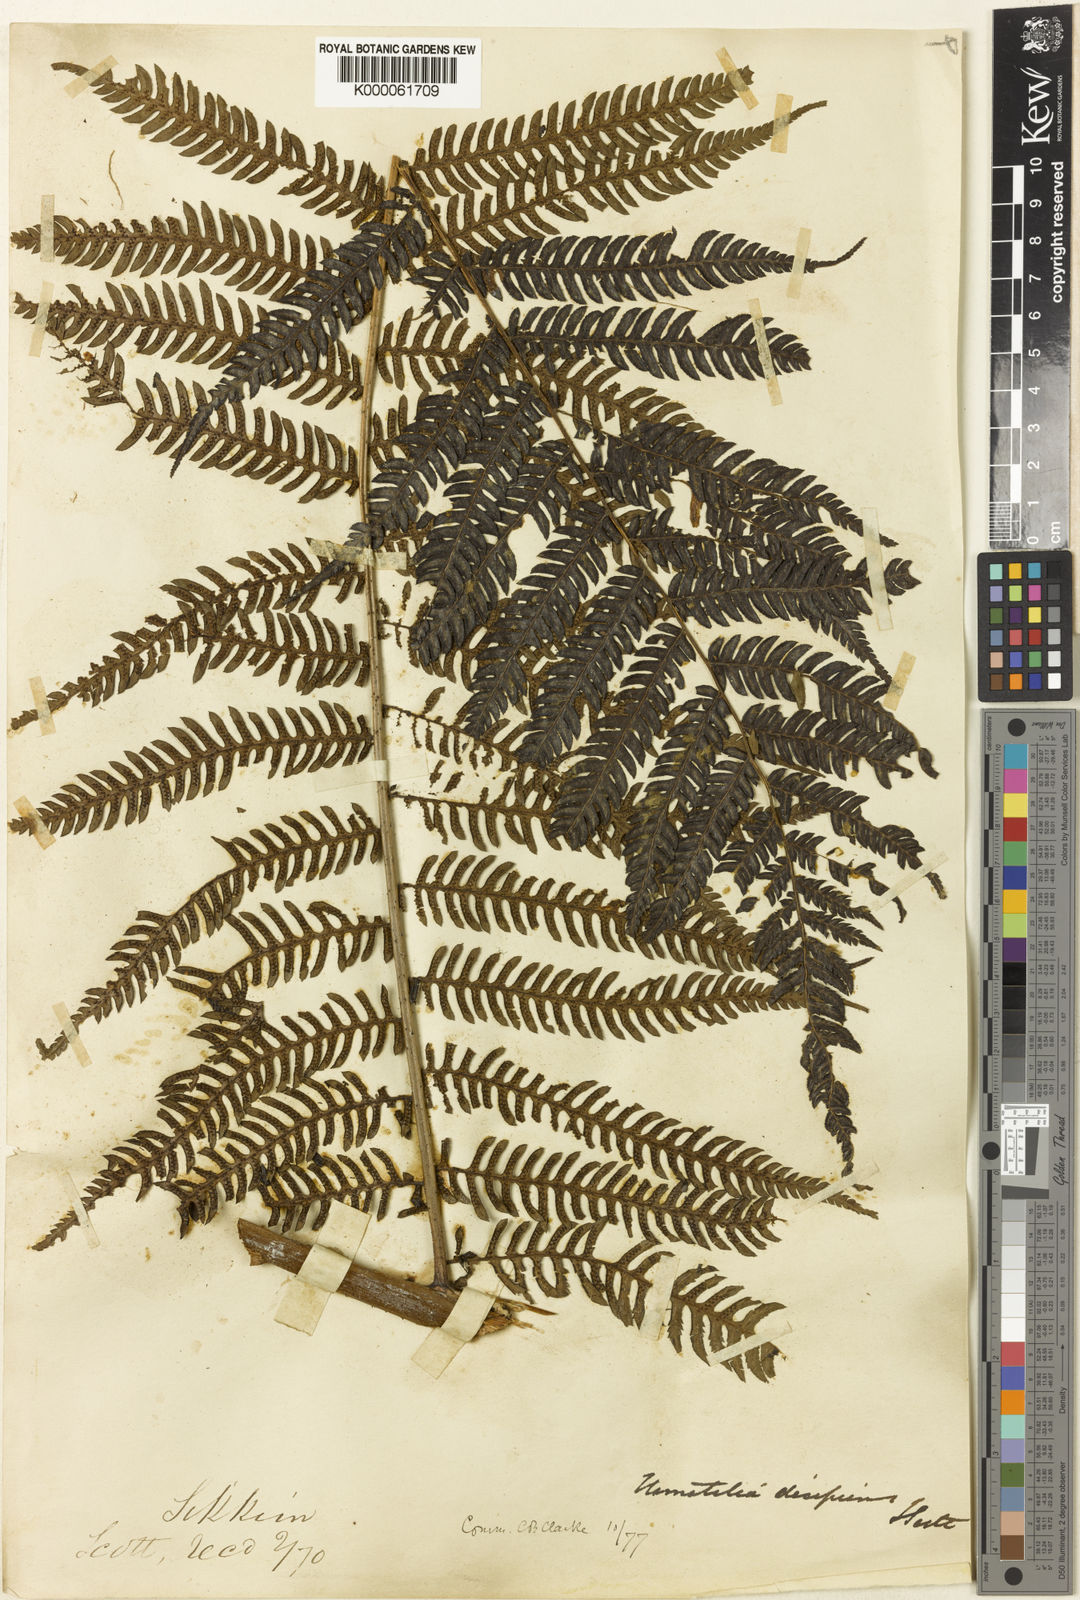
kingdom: Plantae
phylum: Tracheophyta
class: Polypodiopsida
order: Cyatheales
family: Cyatheaceae
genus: Cyathea
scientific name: Cyathea
